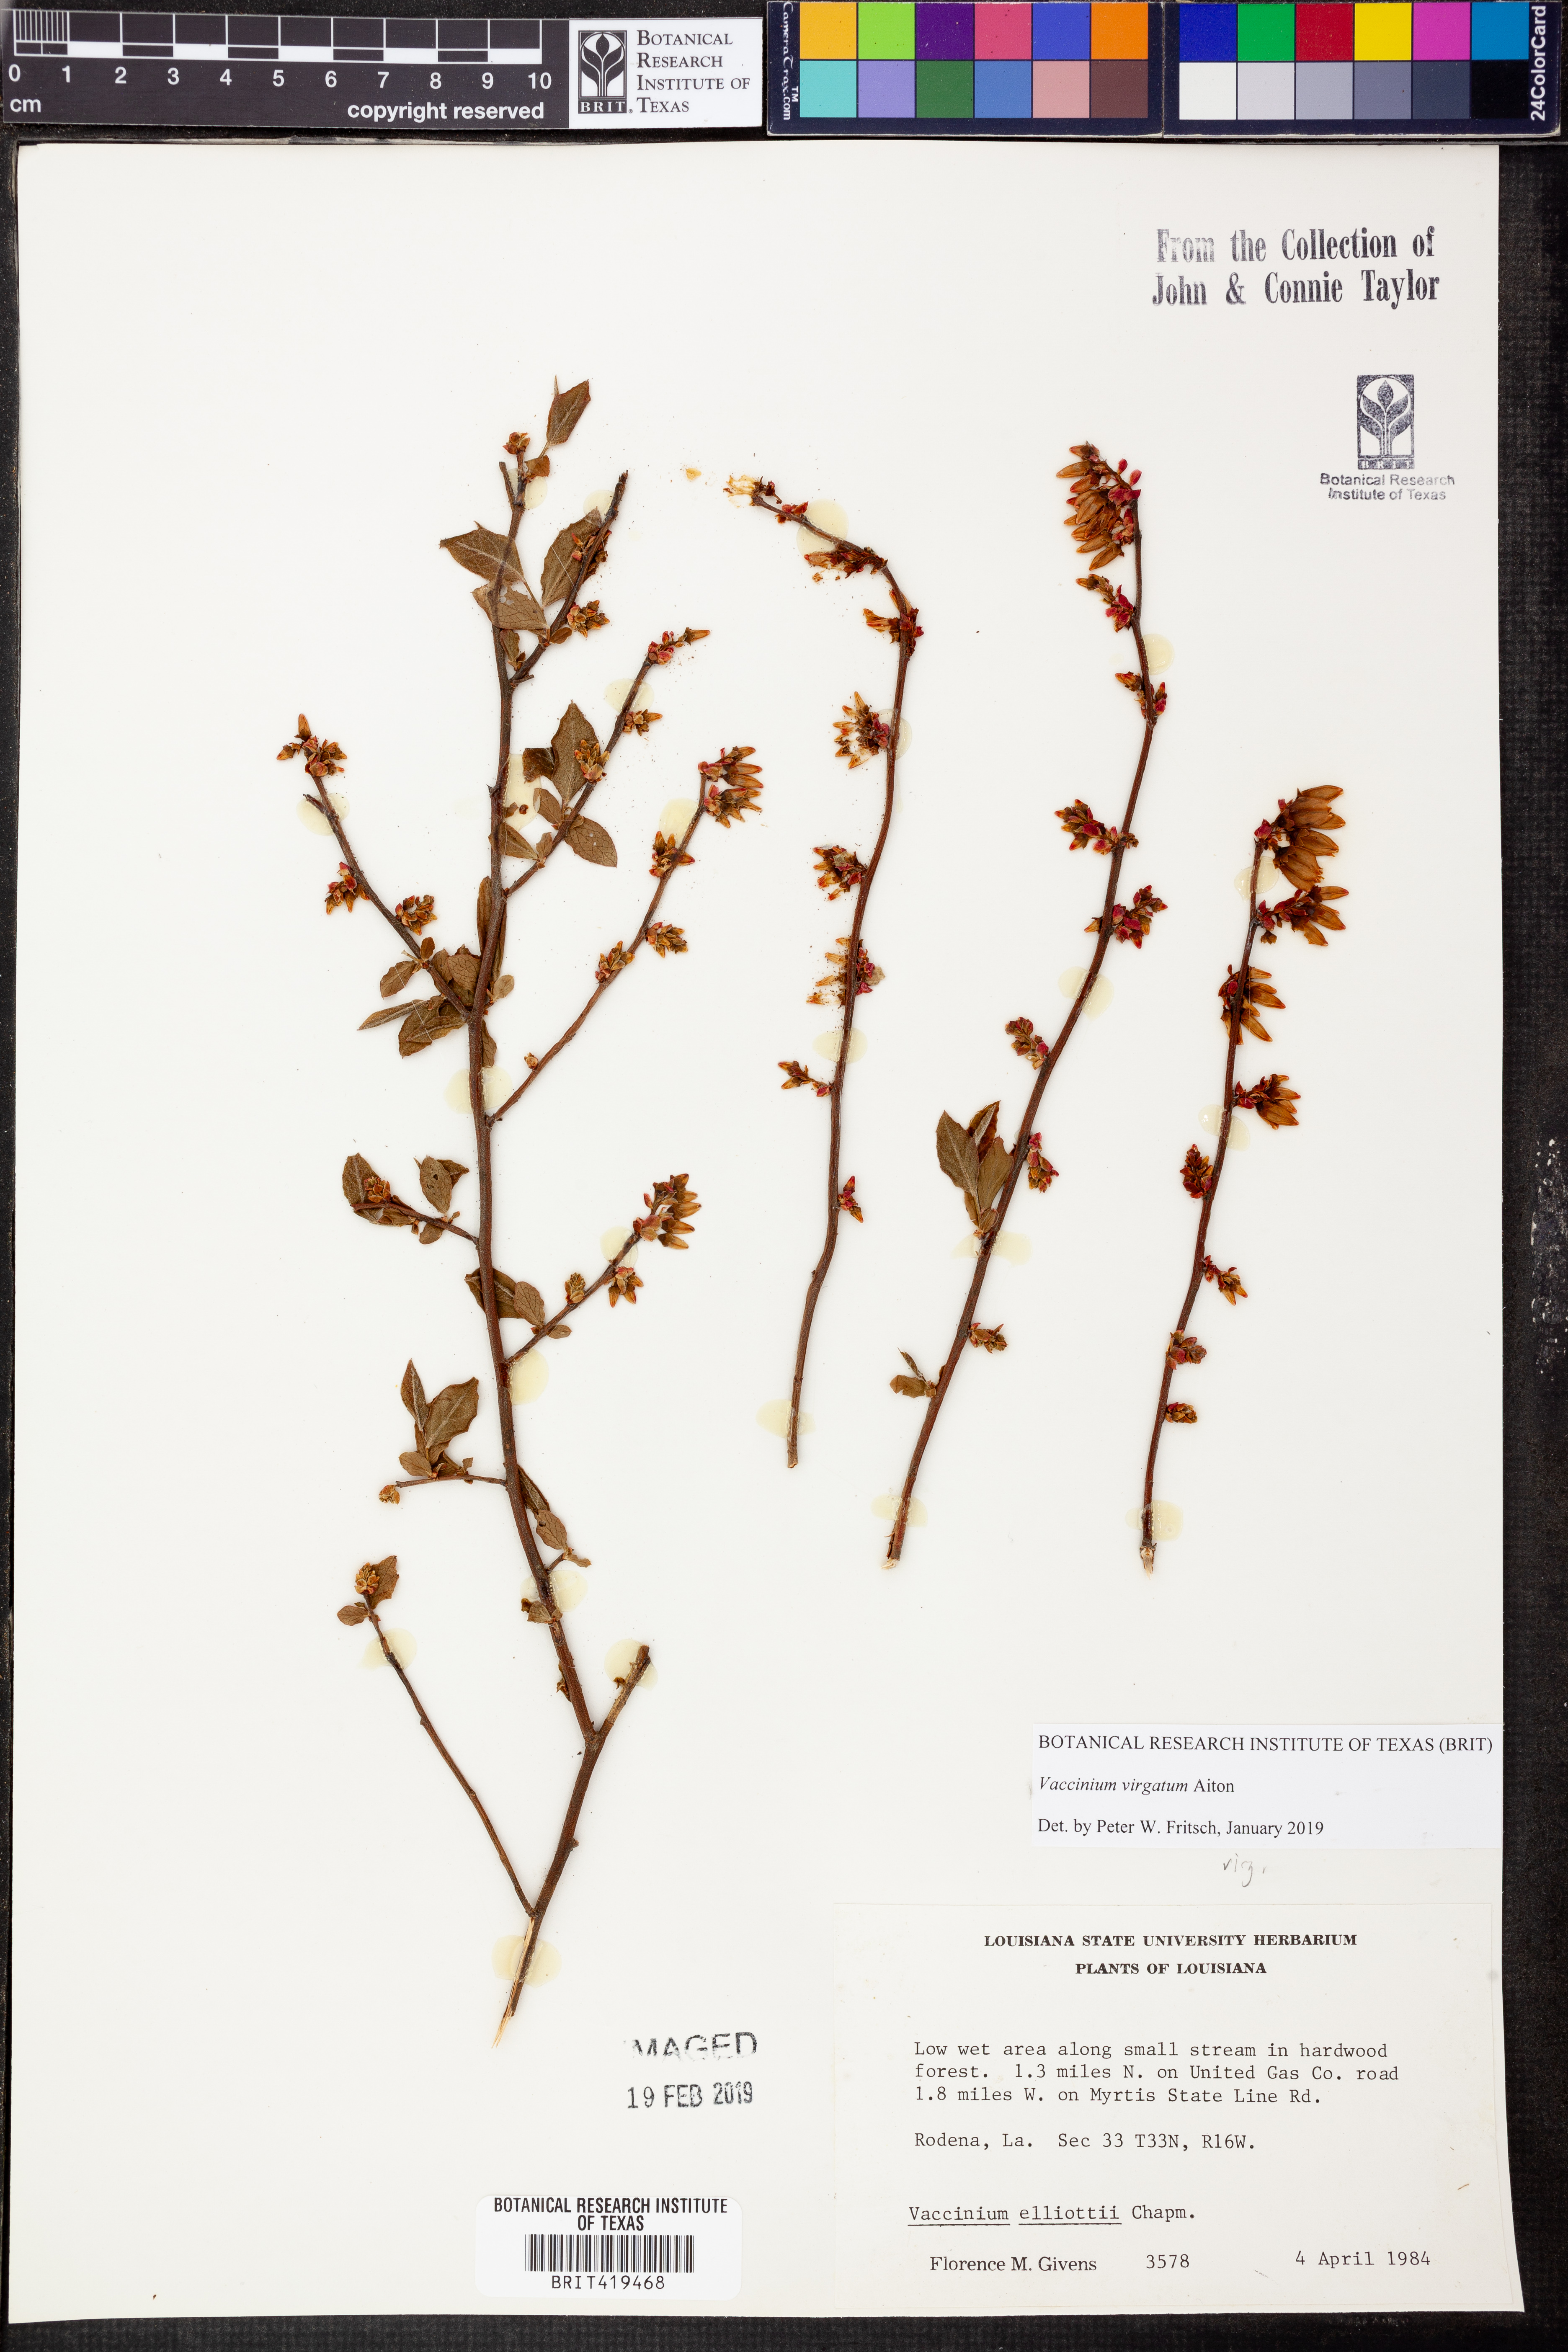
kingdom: Plantae
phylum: Tracheophyta
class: Magnoliopsida
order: Ericales
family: Ericaceae
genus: Vaccinium
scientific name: Vaccinium corymbosum
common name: Blueberry
